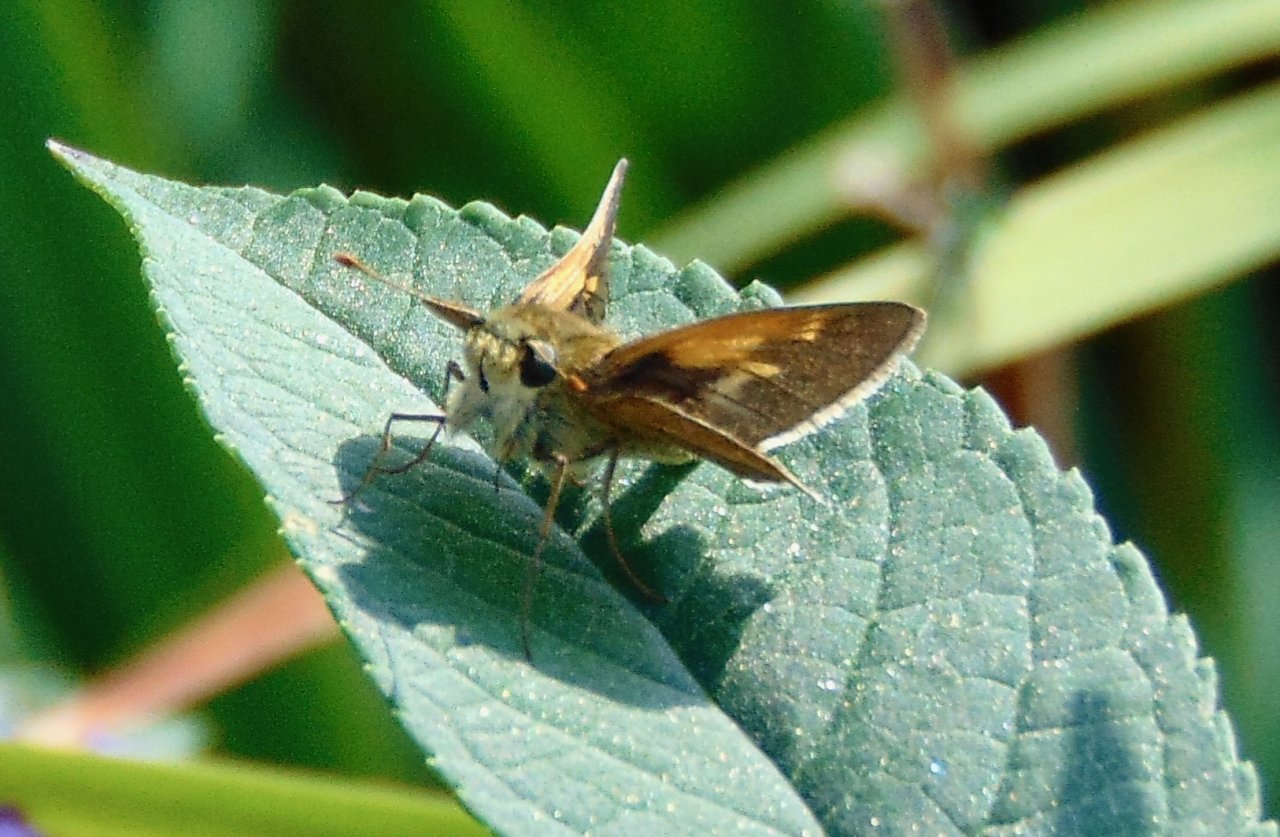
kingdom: Animalia
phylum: Arthropoda
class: Insecta
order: Lepidoptera
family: Hesperiidae
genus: Polites
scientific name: Polites themistocles
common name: Tawny-edged Skipper
